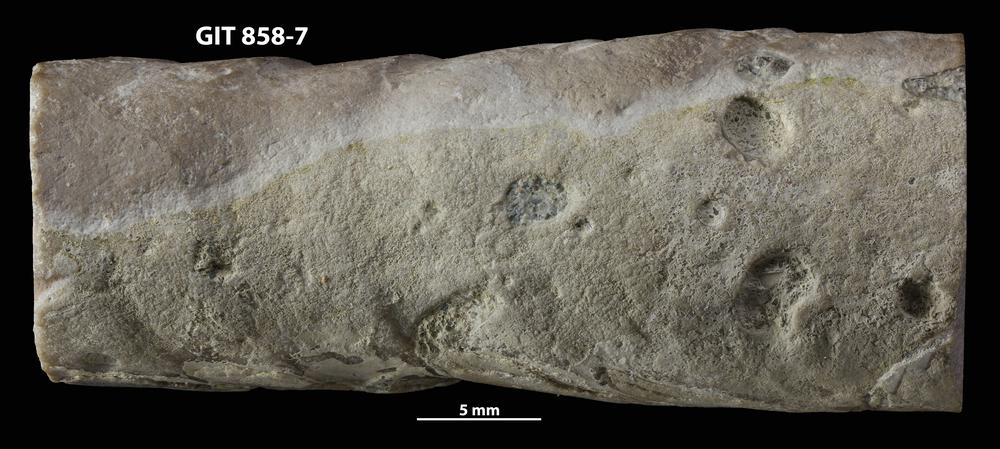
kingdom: Animalia
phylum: Sipuncula
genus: Trypanites
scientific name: Trypanites
